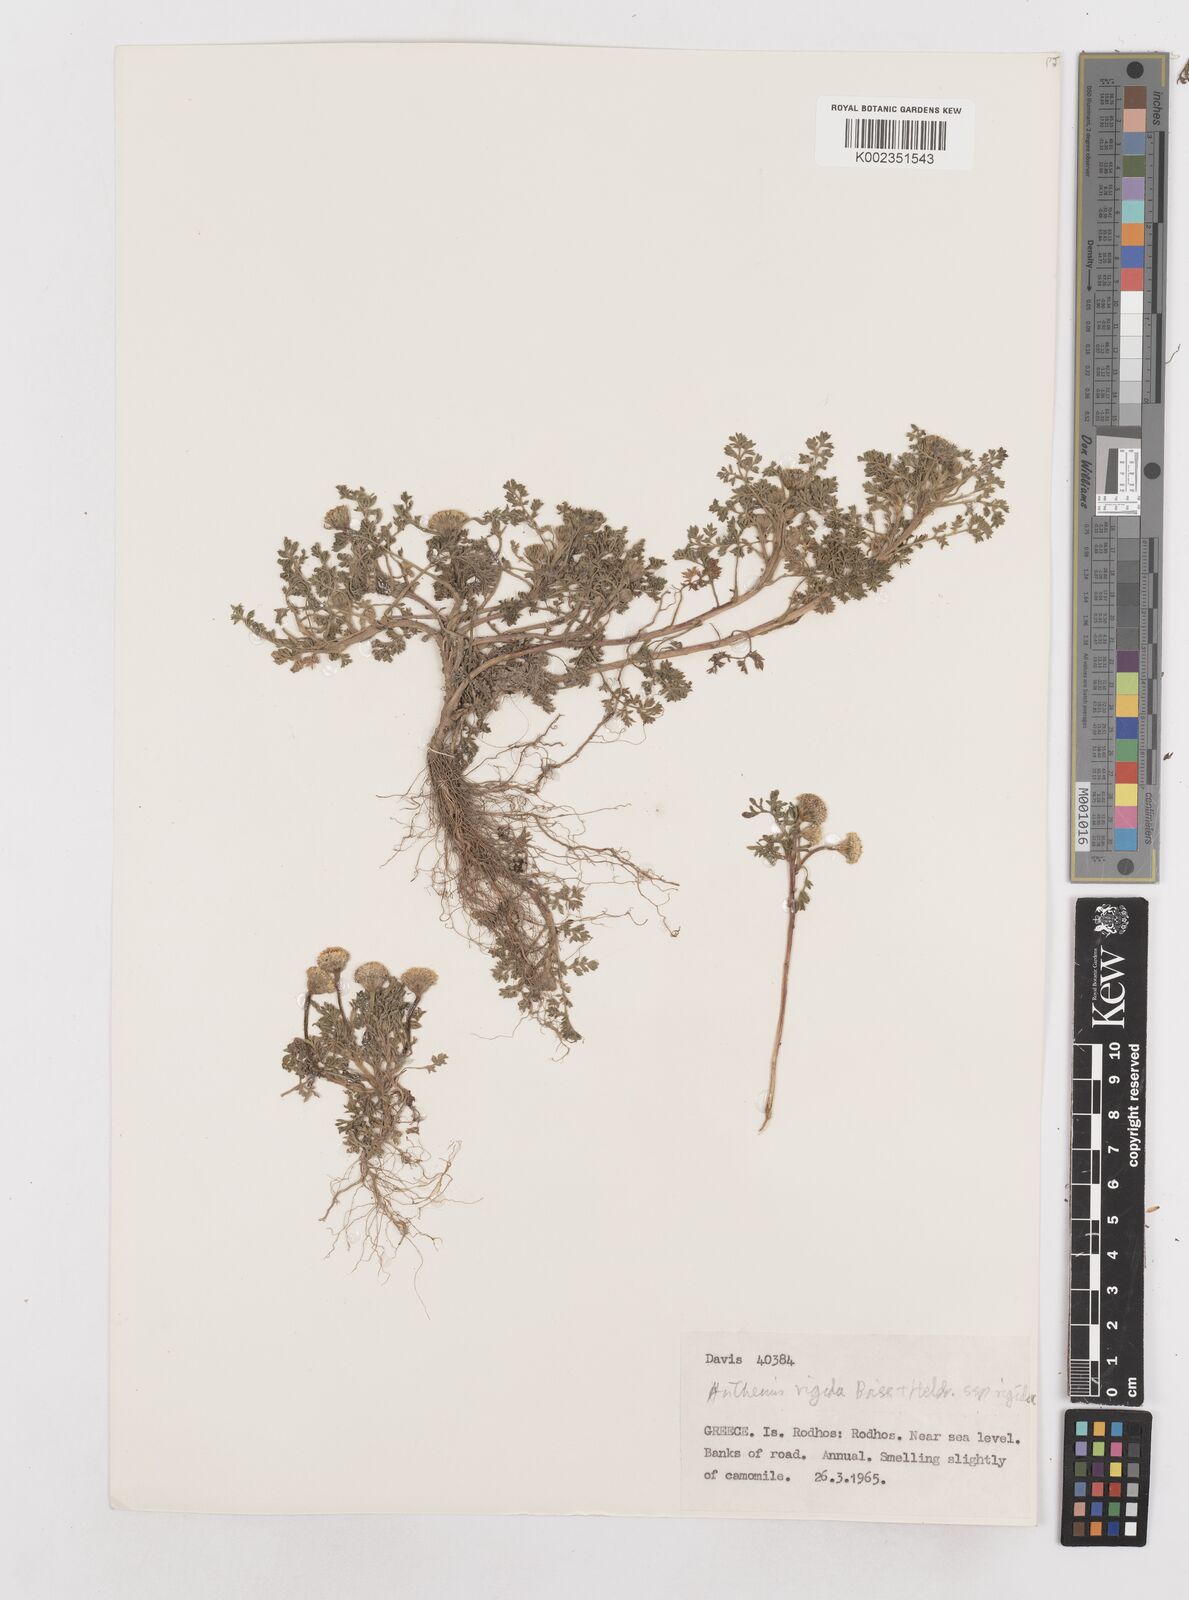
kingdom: Plantae
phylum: Tracheophyta
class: Magnoliopsida
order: Asterales
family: Asteraceae
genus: Anthemis
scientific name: Anthemis rigida
